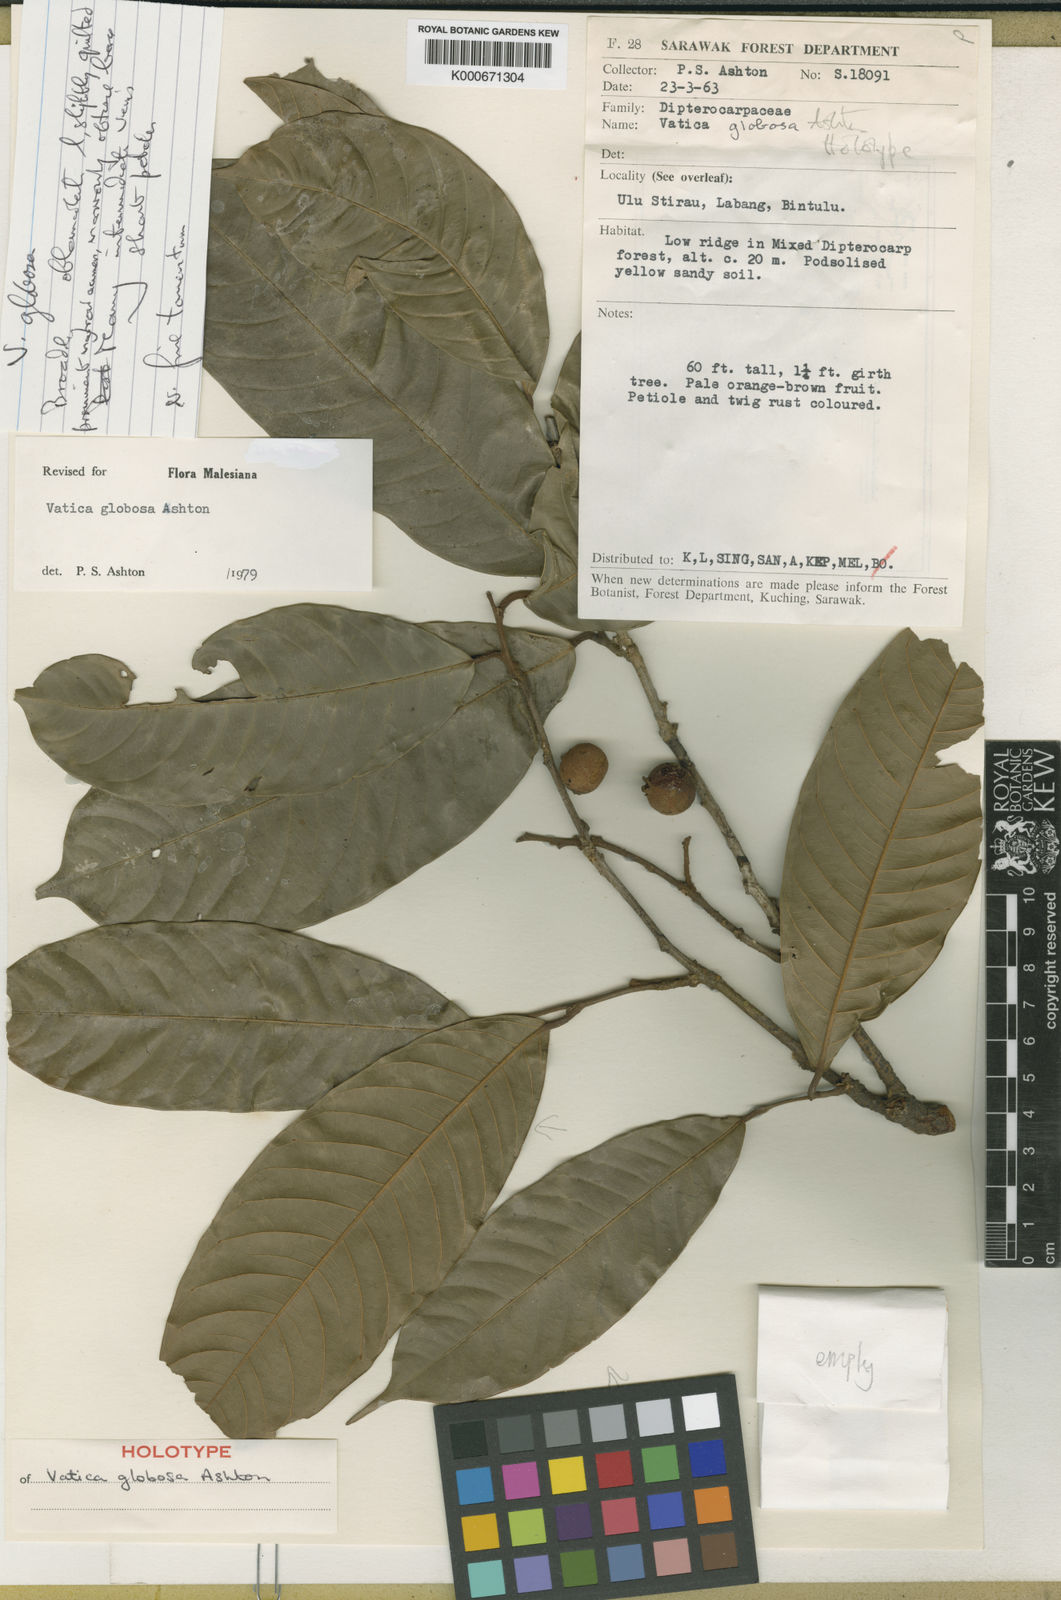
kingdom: Plantae
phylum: Tracheophyta
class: Magnoliopsida
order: Malvales
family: Dipterocarpaceae
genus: Vatica
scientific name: Vatica globosa
